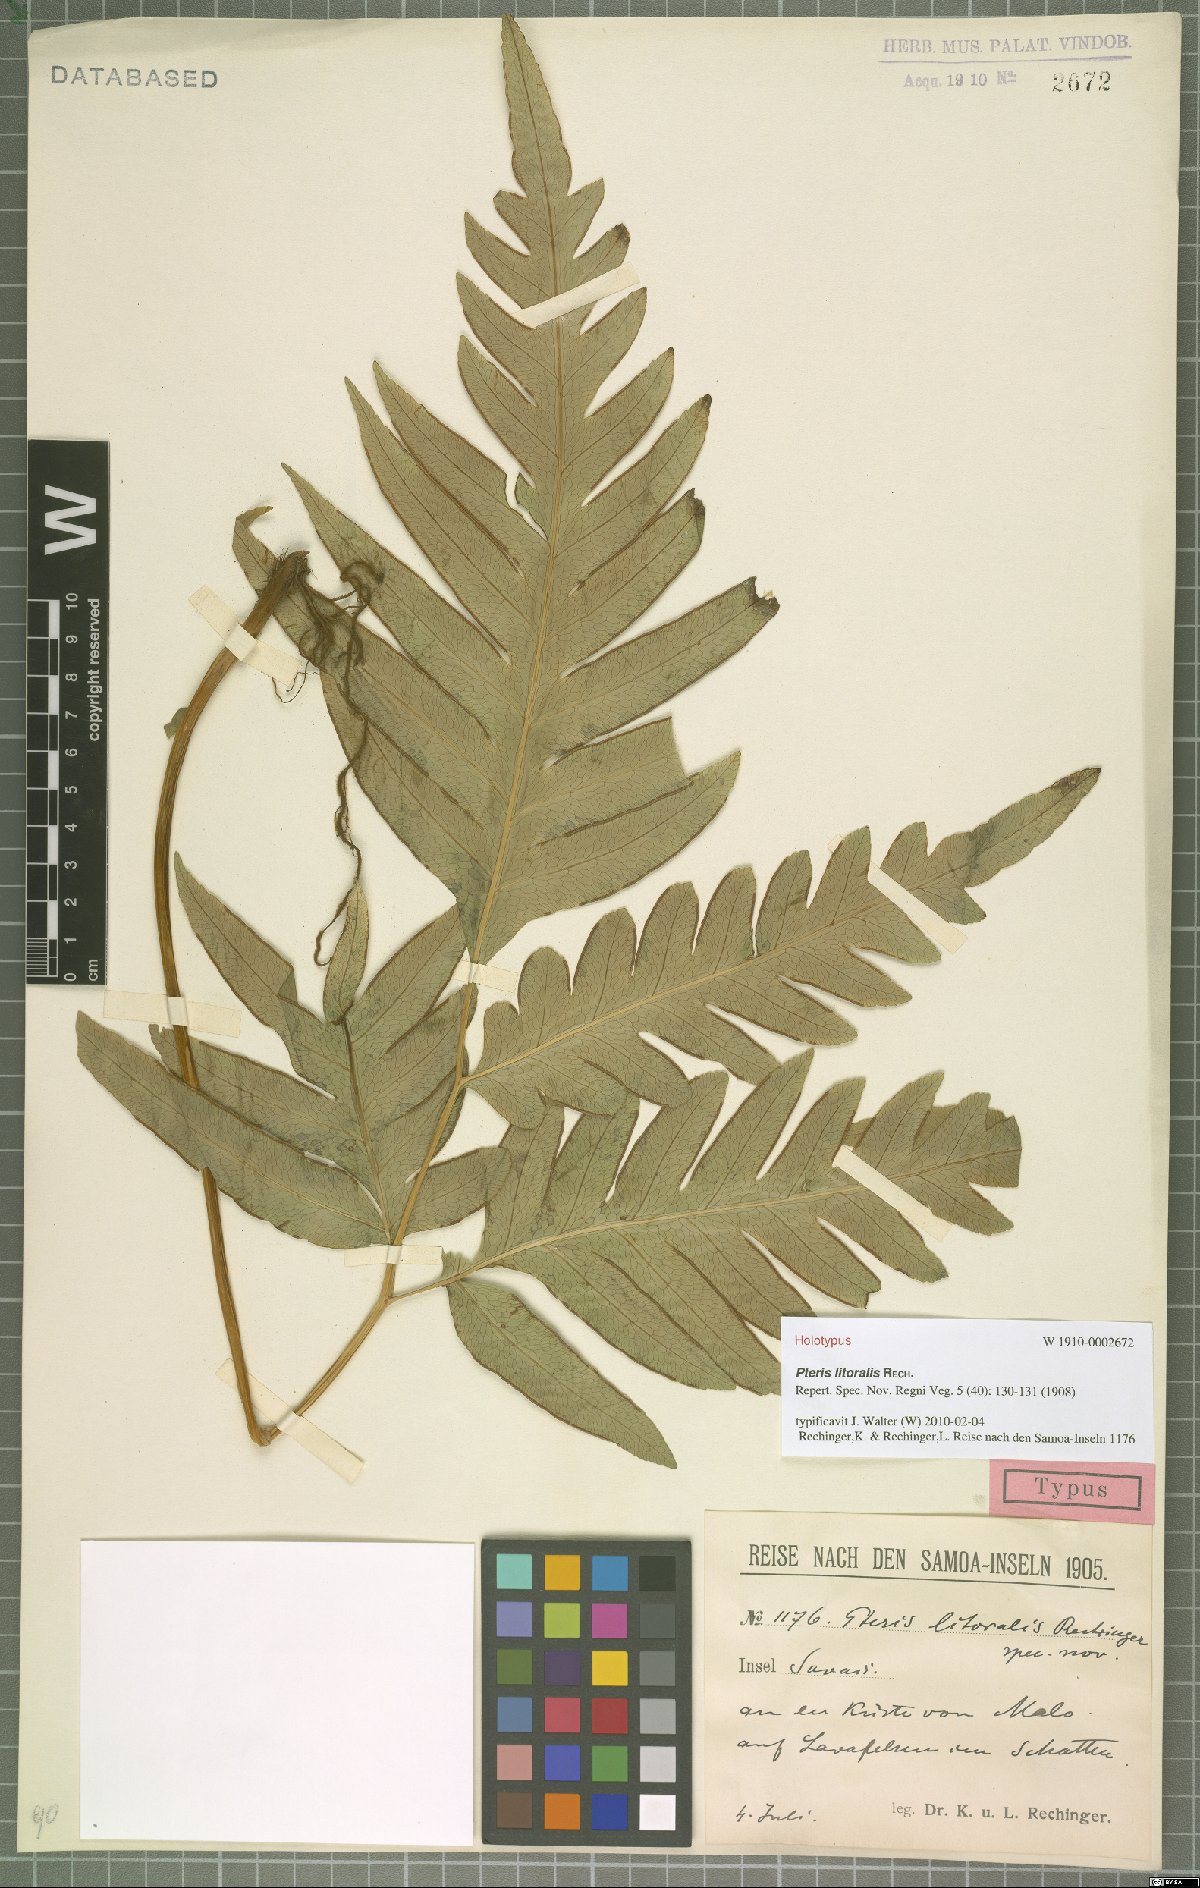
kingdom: Plantae
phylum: Tracheophyta
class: Polypodiopsida
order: Polypodiales
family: Pteridaceae
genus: Pteris
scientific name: Pteris litoralis
